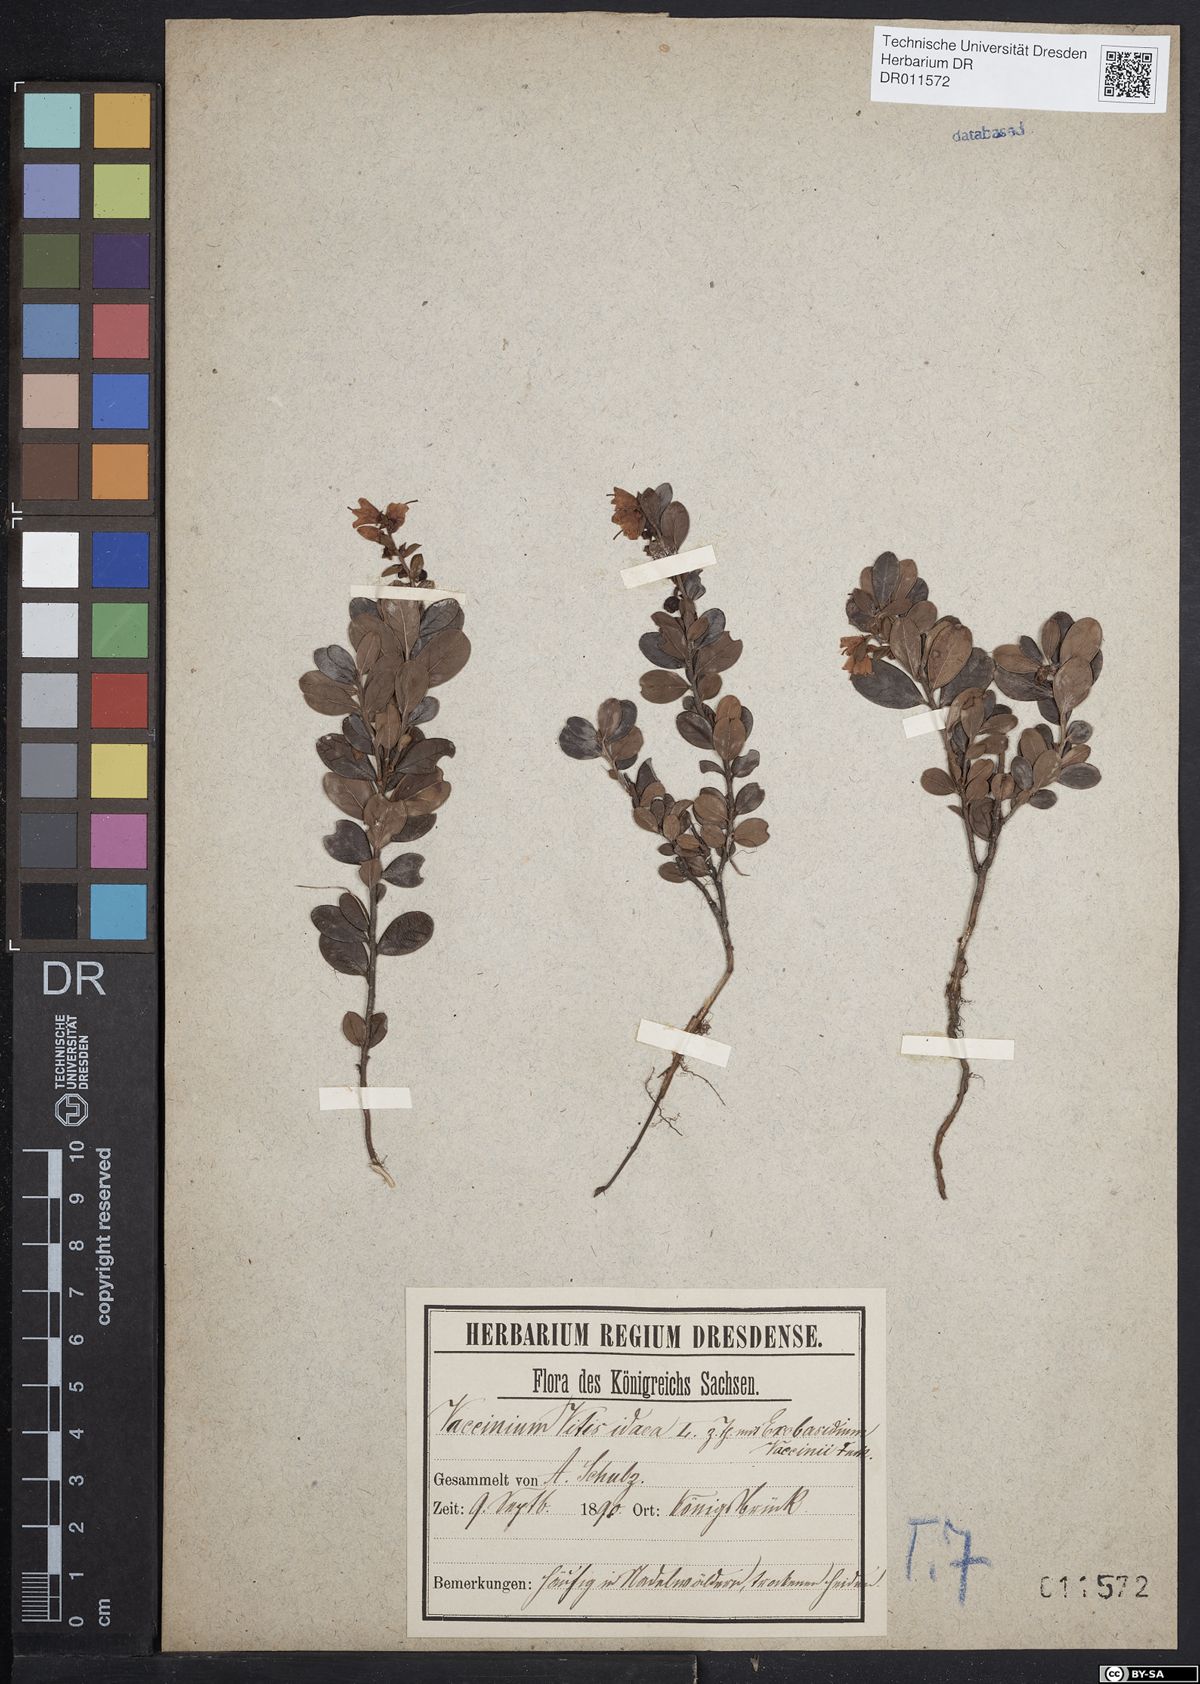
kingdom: Plantae
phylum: Tracheophyta
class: Magnoliopsida
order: Ericales
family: Ericaceae
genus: Vaccinium
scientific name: Vaccinium vitis-idaea
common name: Cowberry
